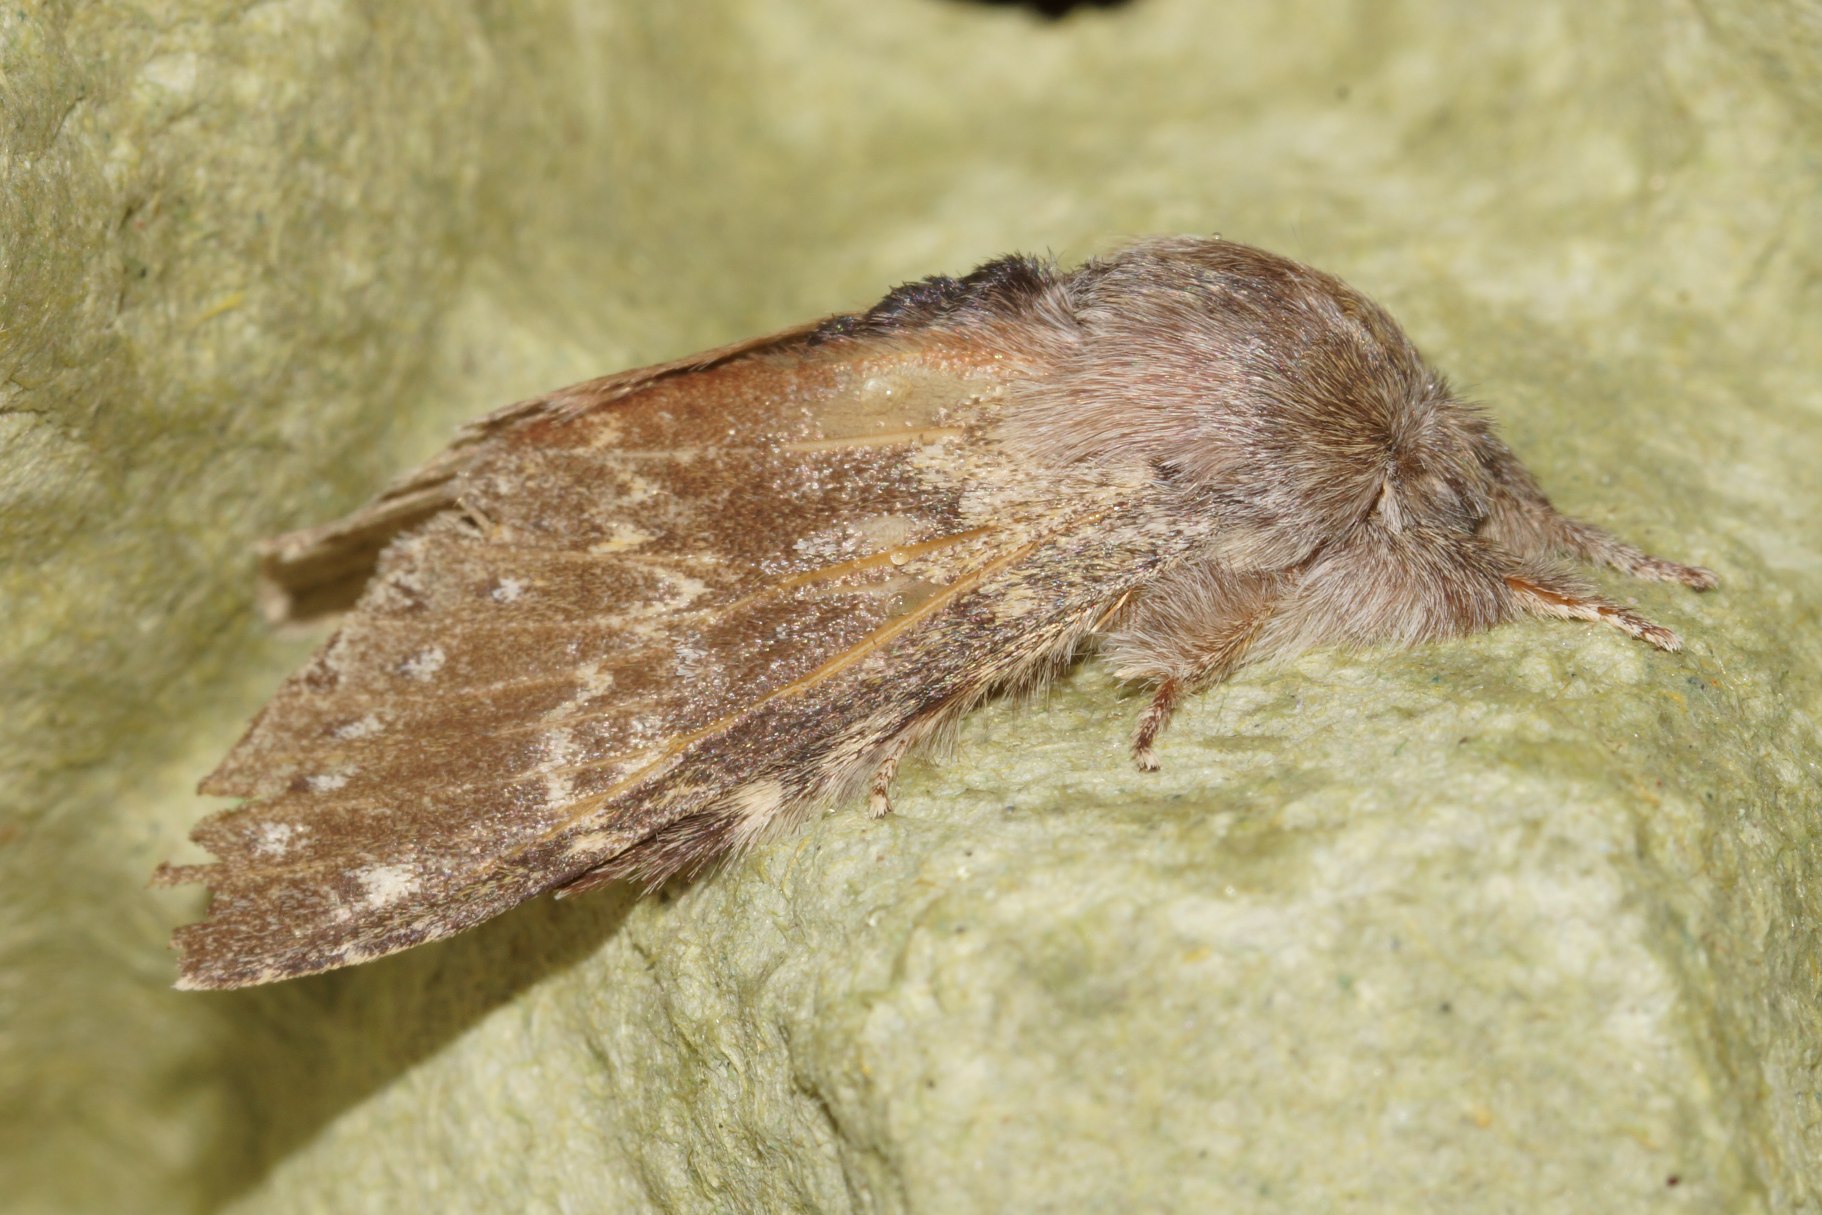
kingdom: Animalia
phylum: Arthropoda
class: Insecta
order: Lepidoptera
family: Notodontidae
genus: Stauropus
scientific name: Stauropus fagi
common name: Bøgespinder
